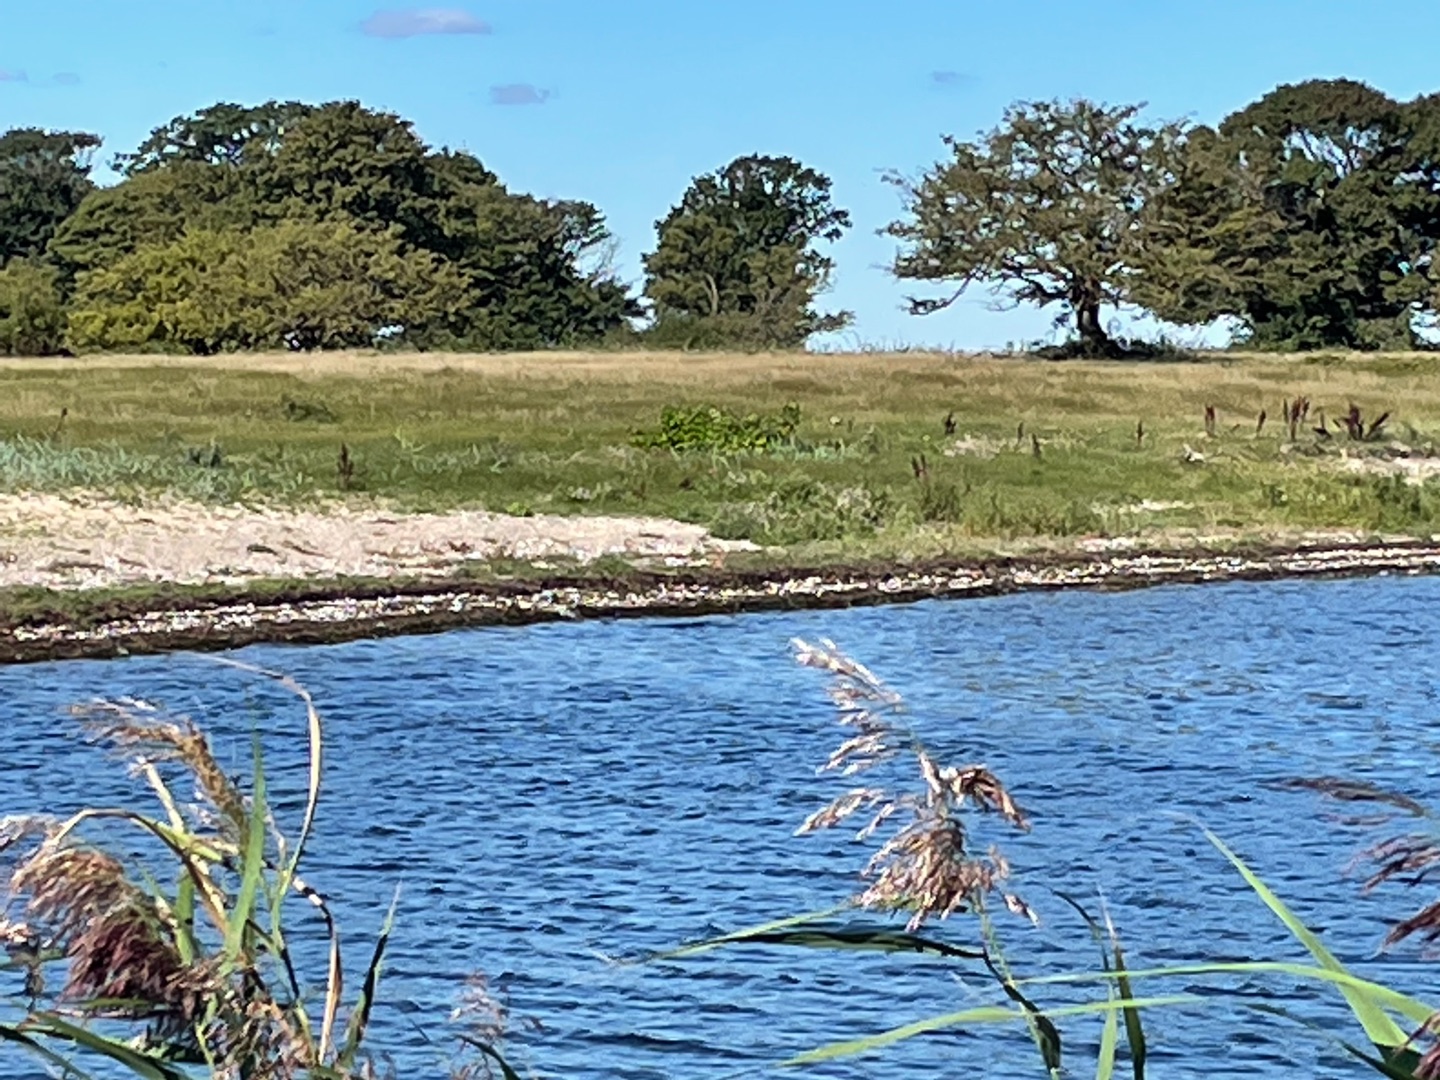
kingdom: Plantae
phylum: Tracheophyta
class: Magnoliopsida
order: Caryophyllales
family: Polygonaceae
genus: Reynoutria
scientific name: Reynoutria
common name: Pileurt (Reynoutria-slægten)
